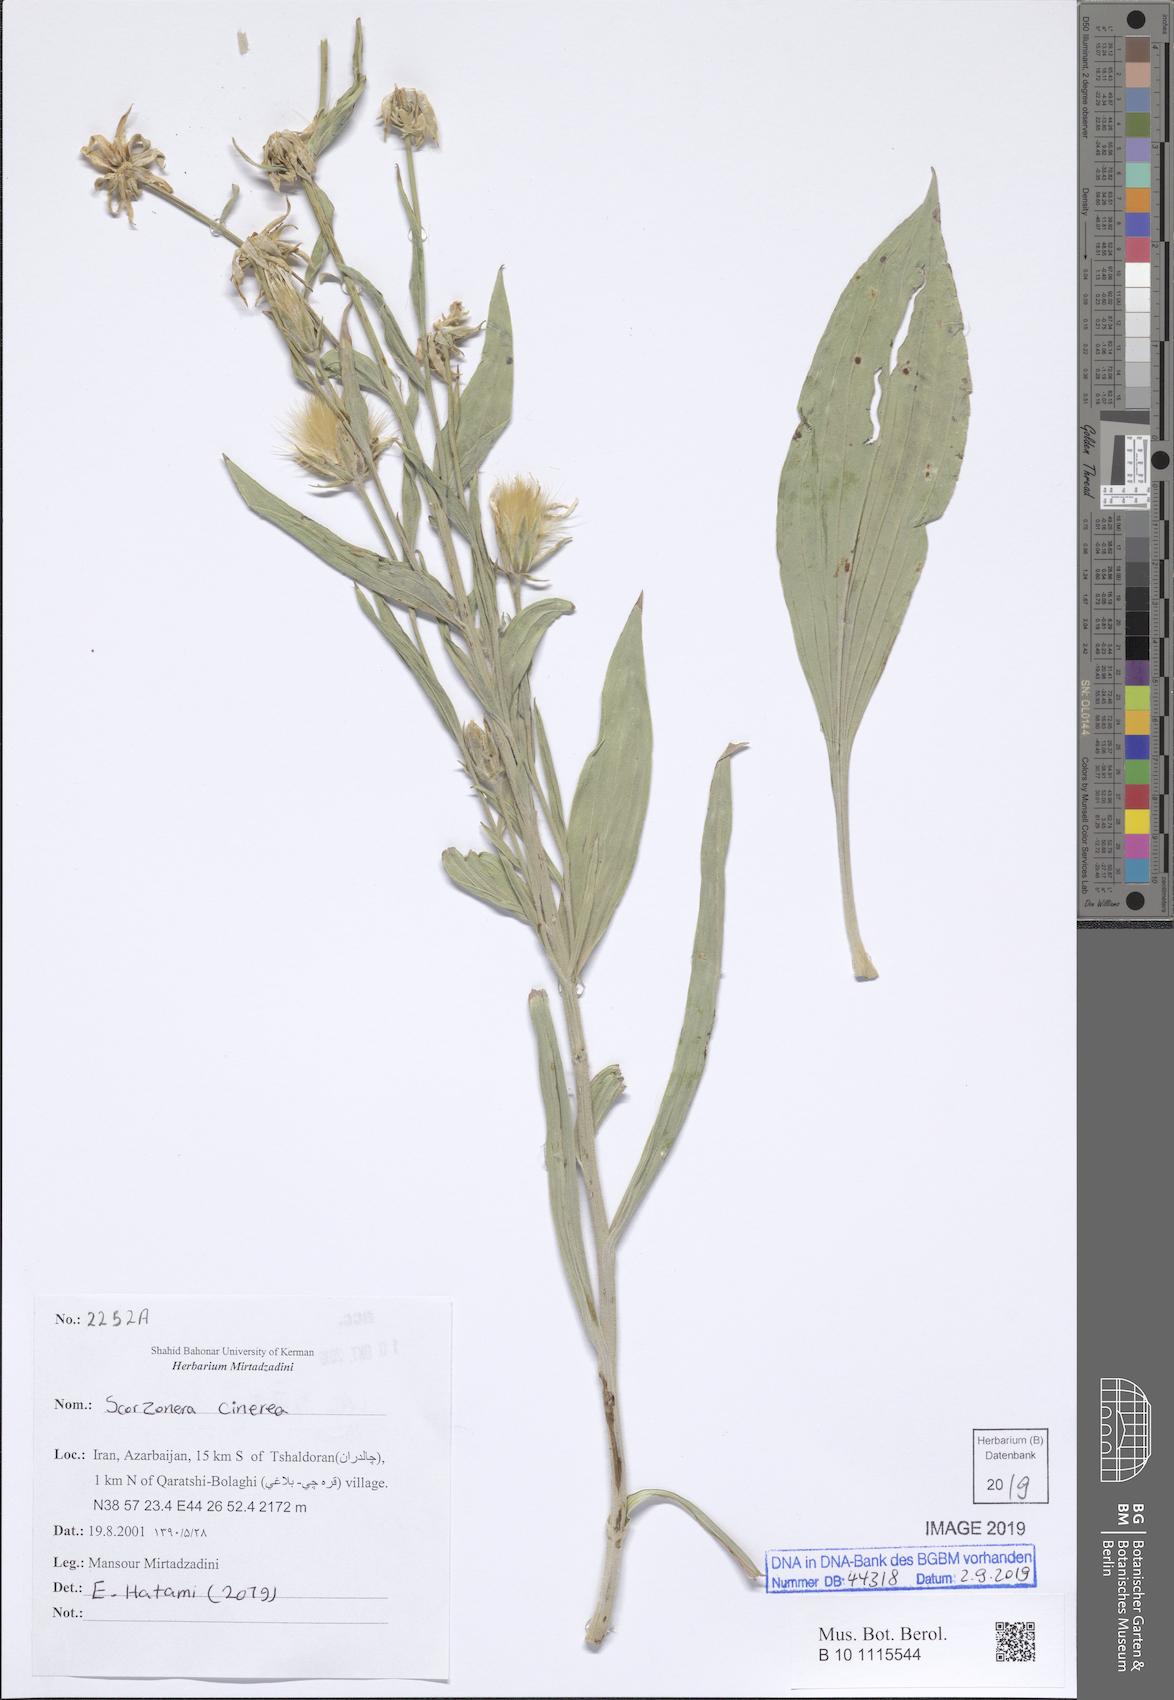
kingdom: Plantae
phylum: Tracheophyta
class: Magnoliopsida
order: Asterales
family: Asteraceae
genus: Cigdemia
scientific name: Cigdemia cinerea
